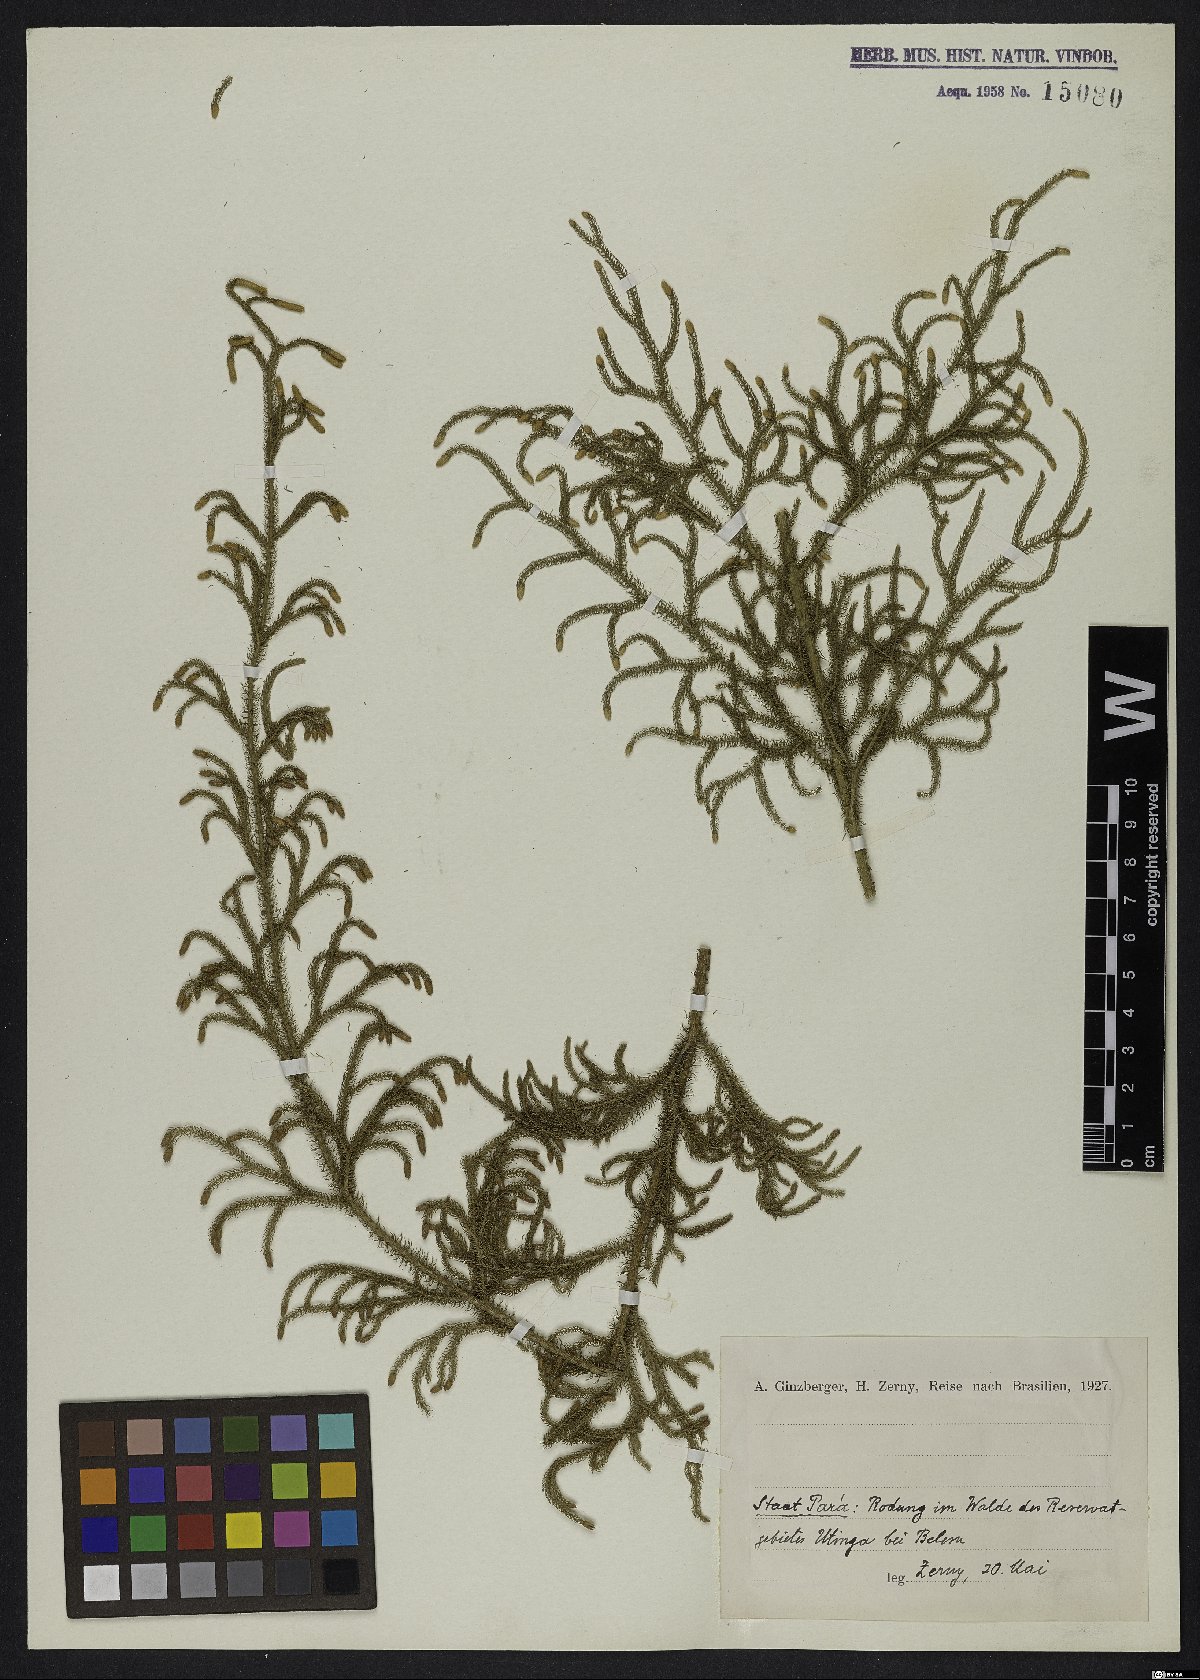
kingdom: Plantae
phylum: Tracheophyta
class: Lycopodiopsida
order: Lycopodiales
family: Lycopodiaceae
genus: Lycopodium
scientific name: Lycopodium
